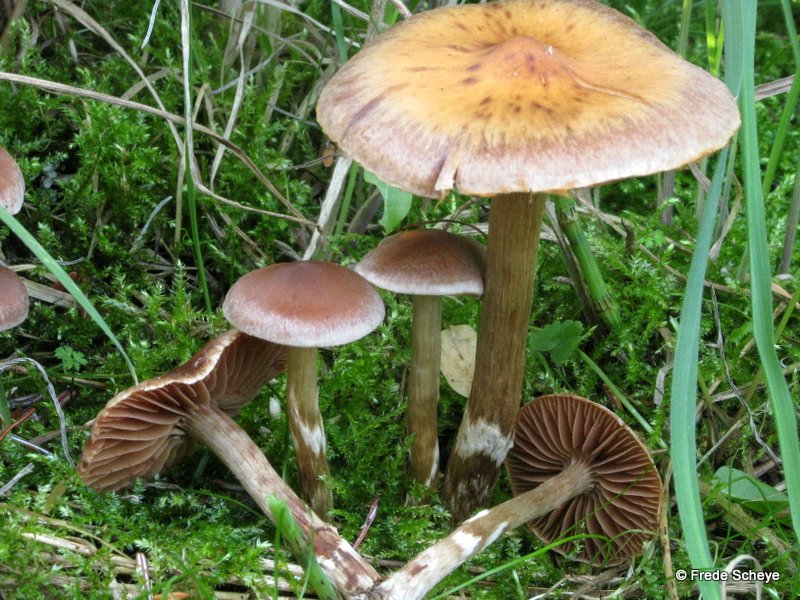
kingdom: Fungi
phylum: Basidiomycota
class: Agaricomycetes
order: Agaricales
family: Cortinariaceae
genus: Cortinarius
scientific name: Cortinarius brunneocarpus
